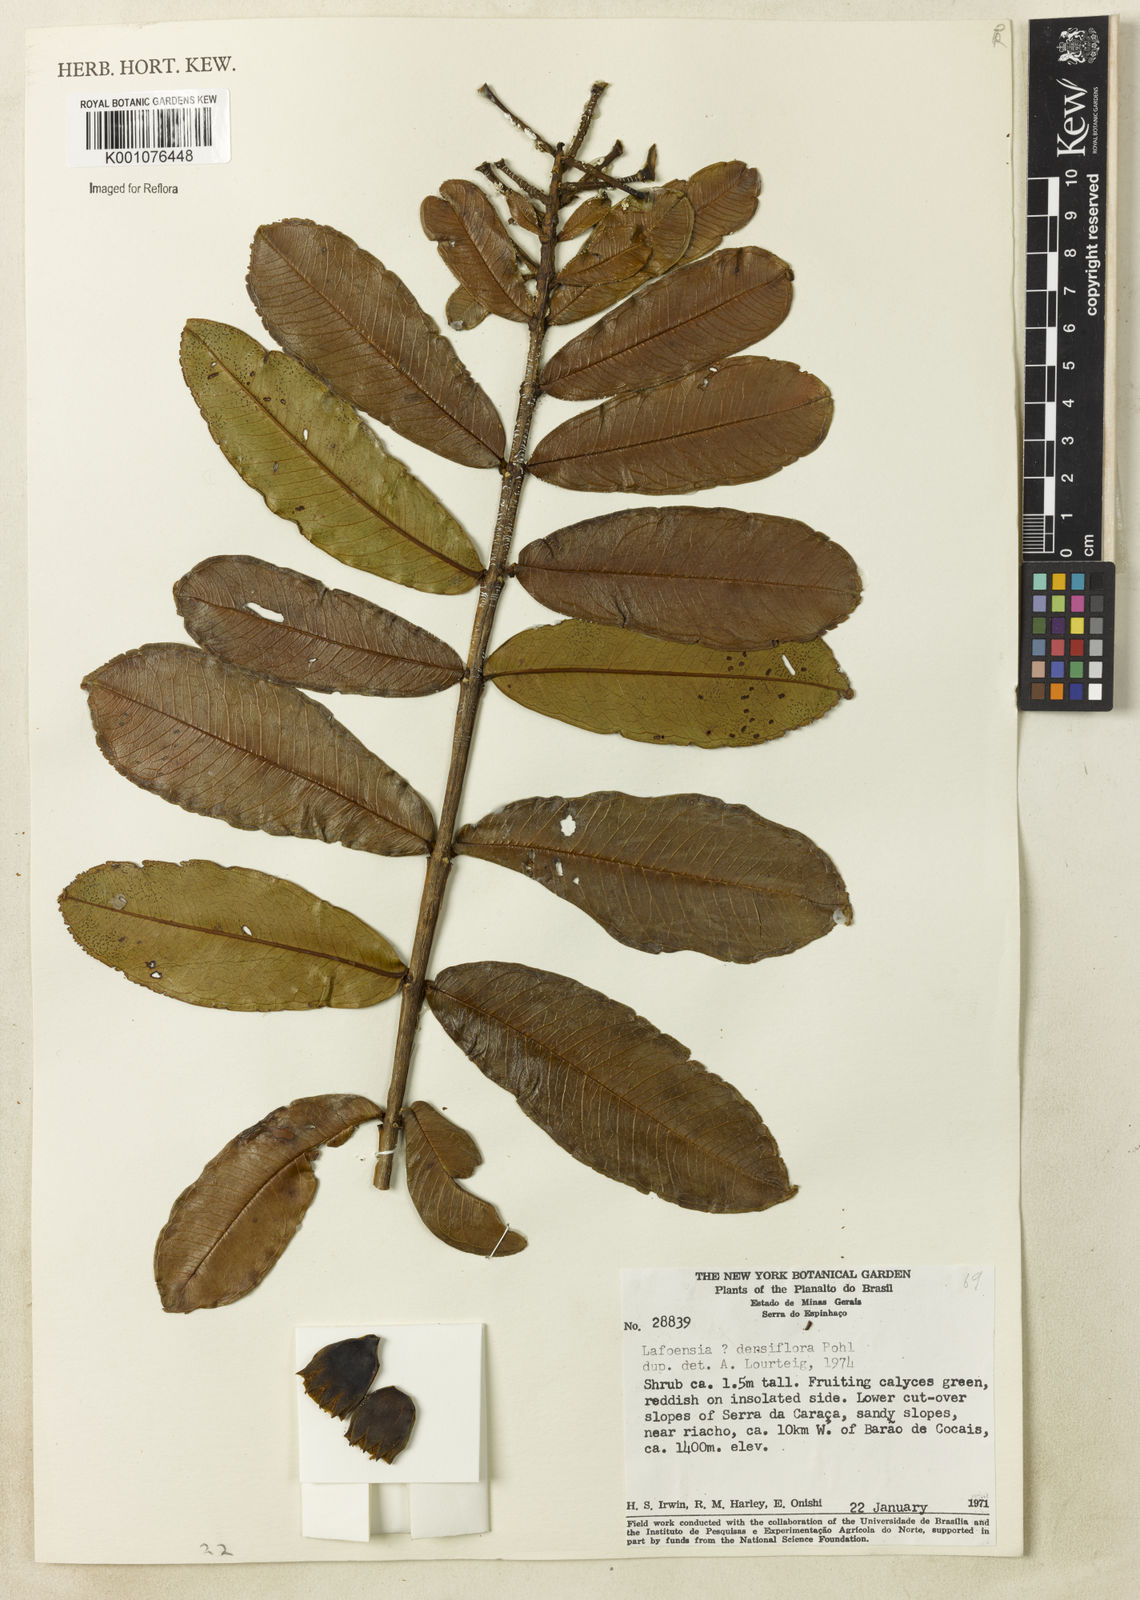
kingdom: Plantae
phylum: Tracheophyta
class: Magnoliopsida
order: Myrtales
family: Lythraceae
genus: Lafoensia
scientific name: Lafoensia vandelliana
